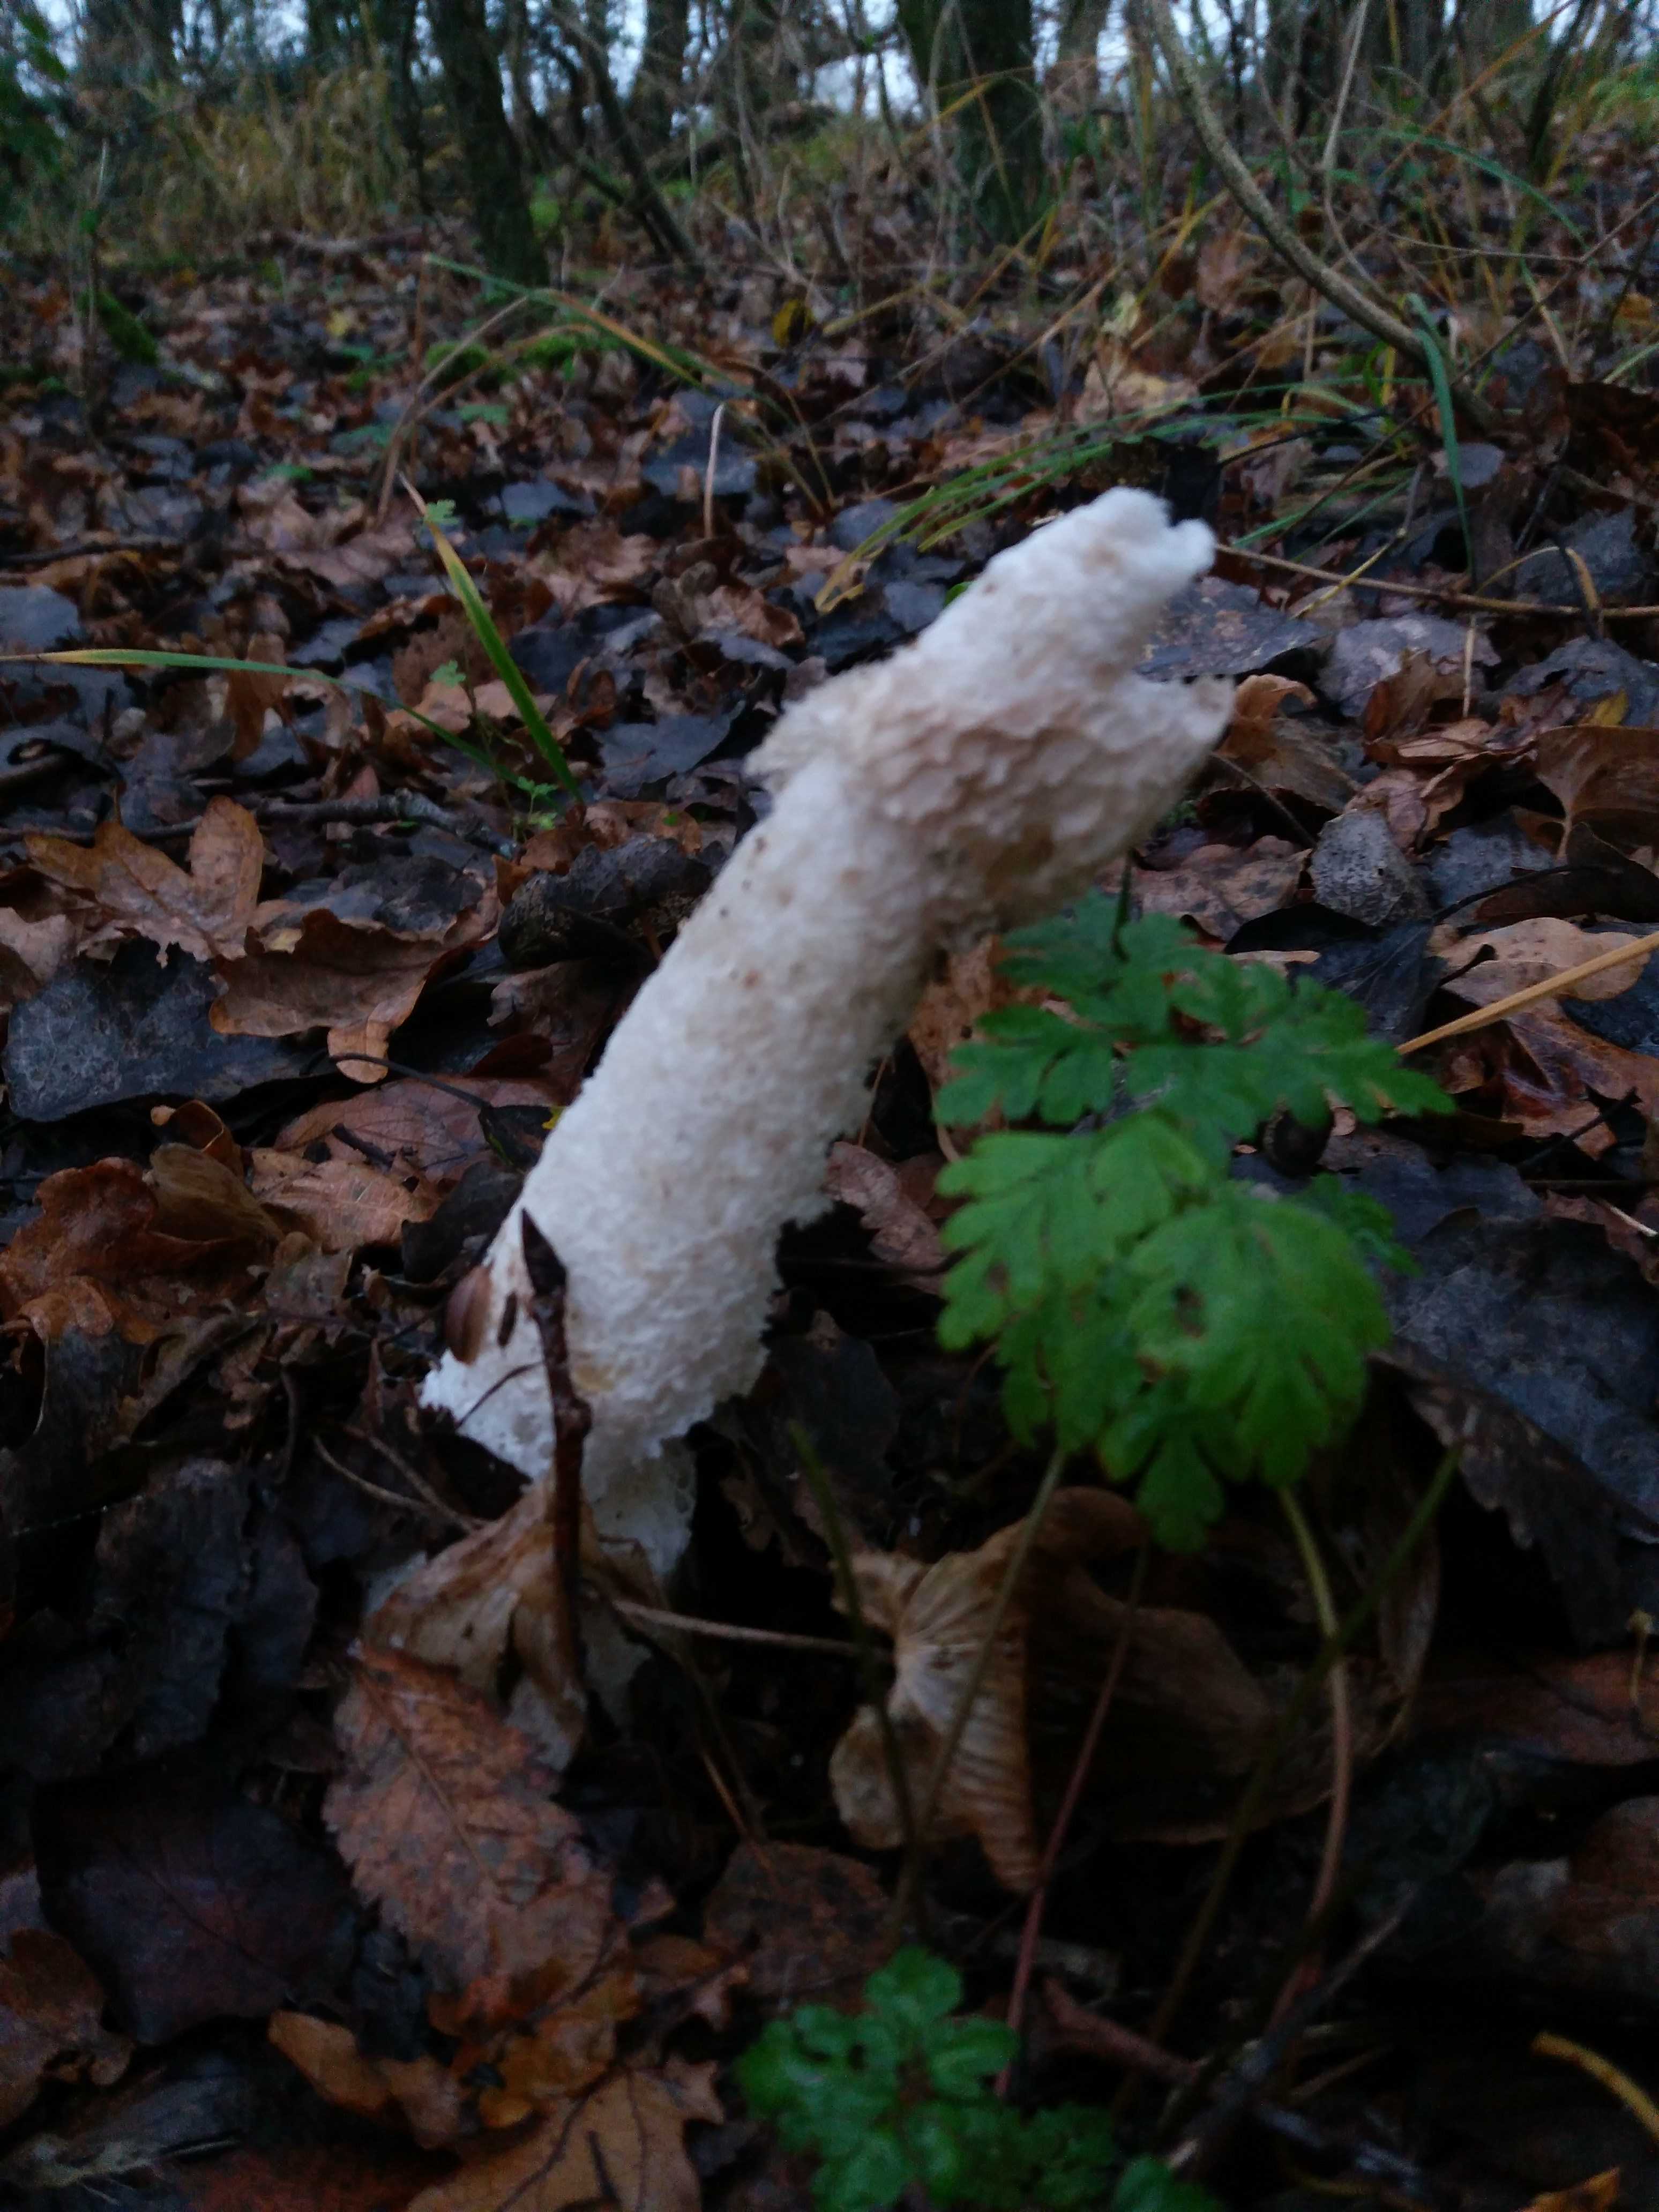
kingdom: Fungi
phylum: Basidiomycota
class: Agaricomycetes
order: Phallales
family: Phallaceae
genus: Phallus
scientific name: Phallus impudicus
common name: almindelig stinksvamp
